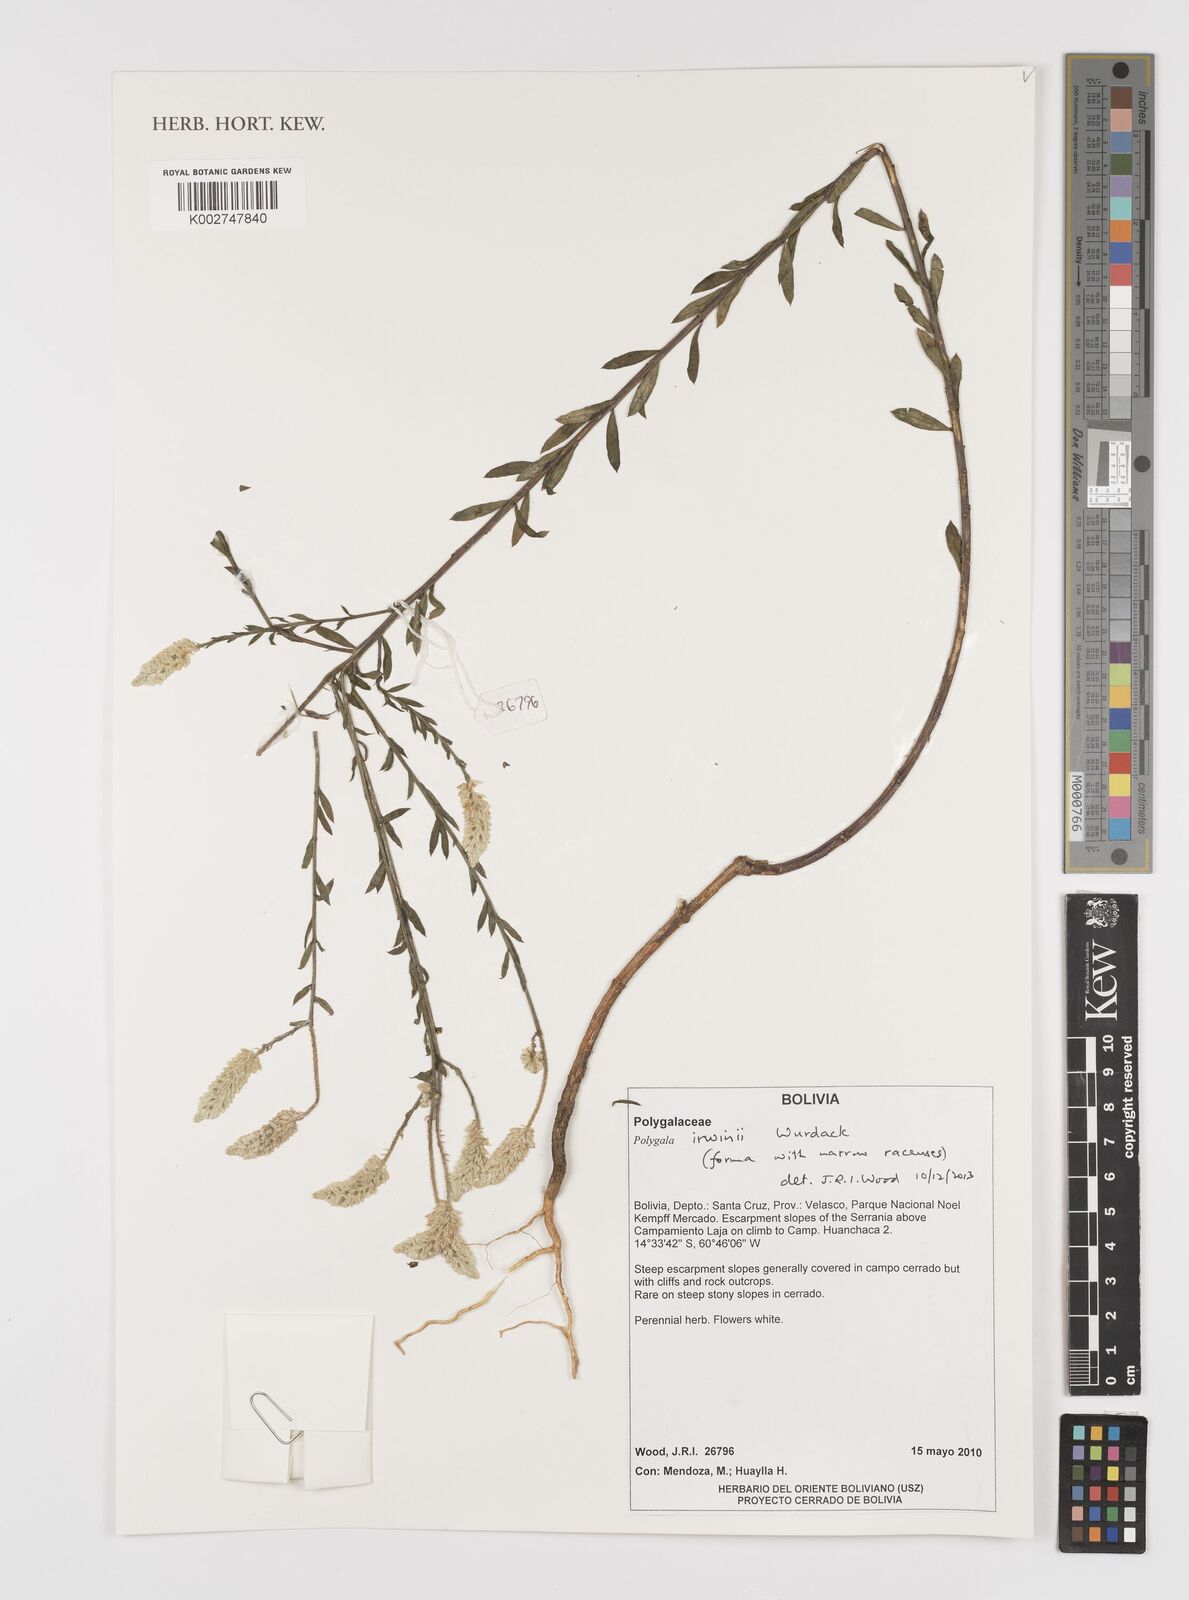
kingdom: Plantae
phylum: Tracheophyta
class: Magnoliopsida
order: Fabales
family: Polygalaceae
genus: Polygala
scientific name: Polygala irwinii
